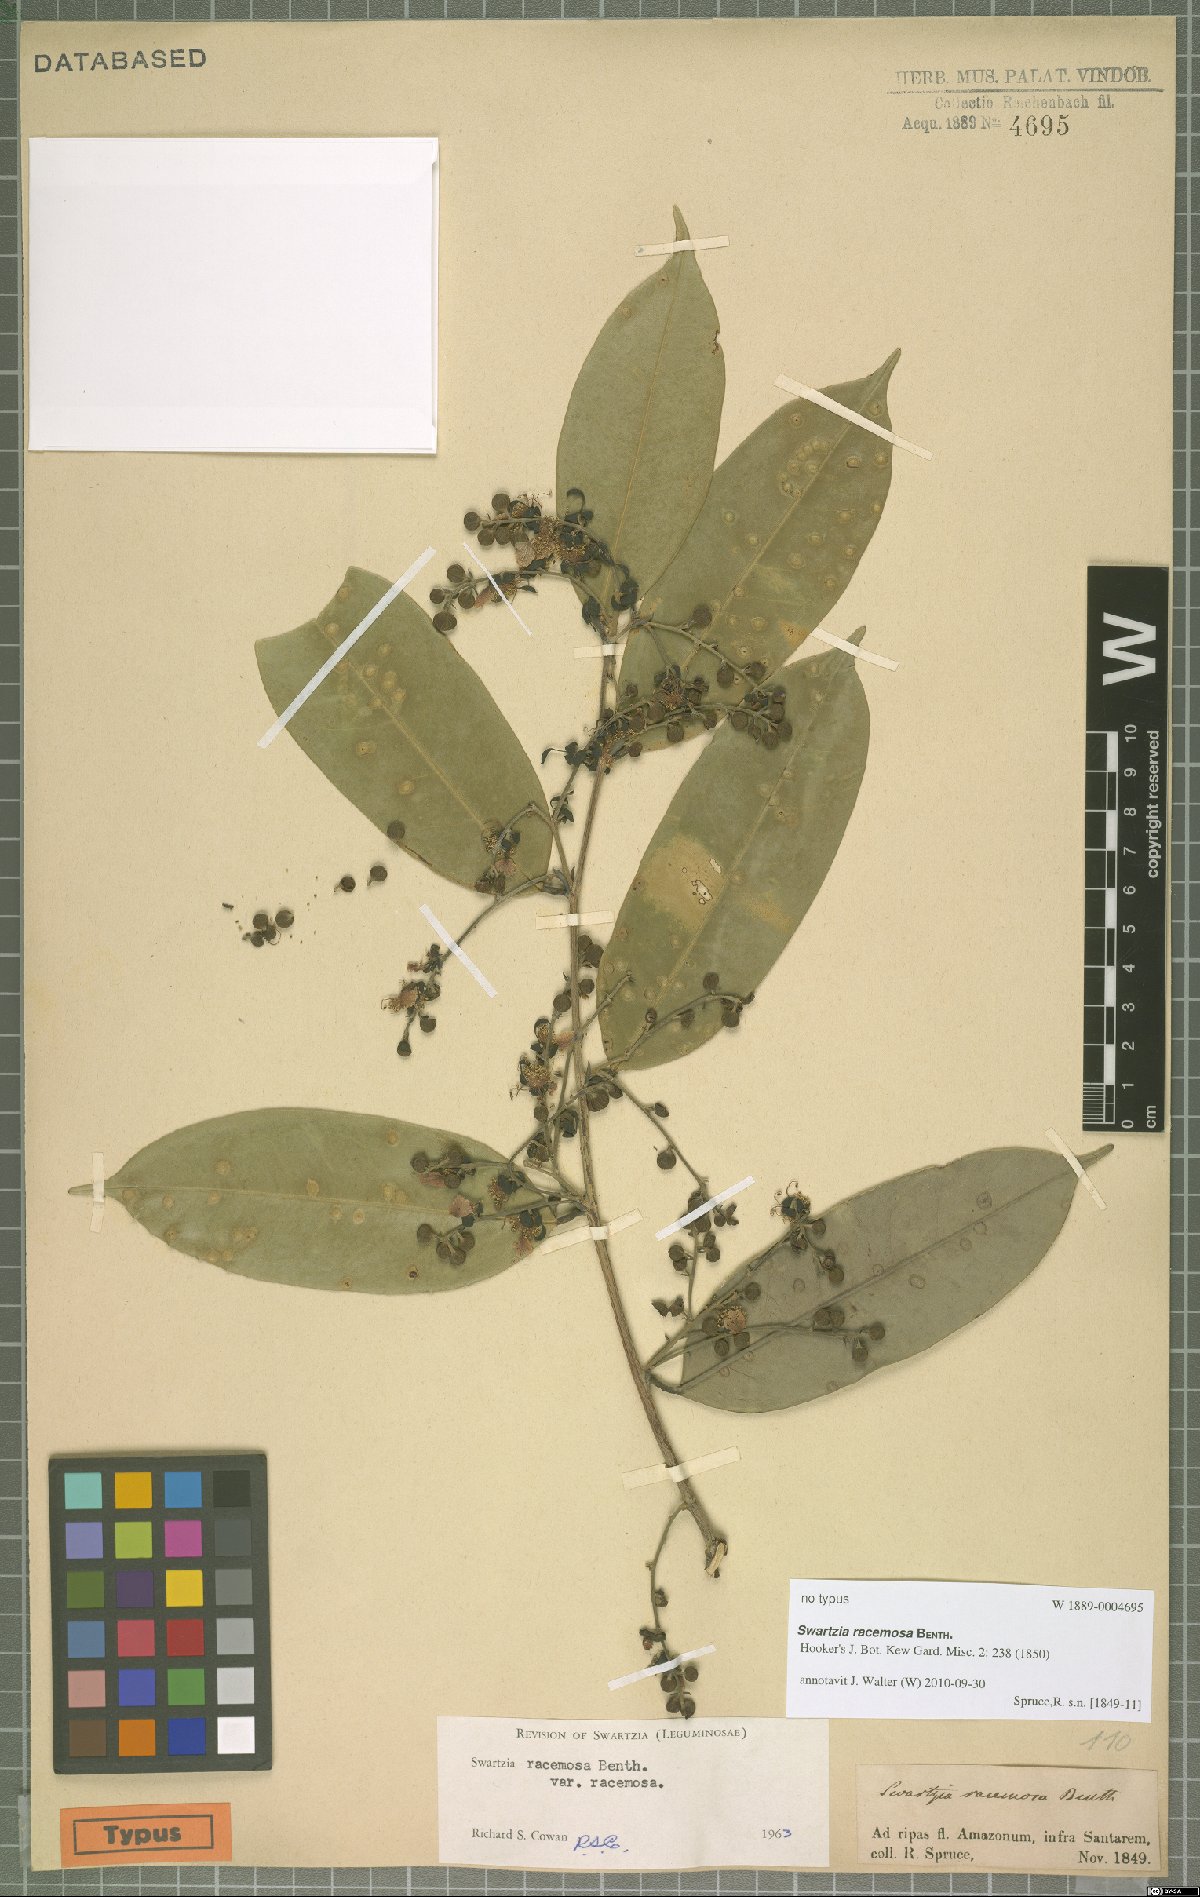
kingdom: Plantae
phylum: Tracheophyta
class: Magnoliopsida
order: Fabales
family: Fabaceae
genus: Swartzia
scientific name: Swartzia racemosa
